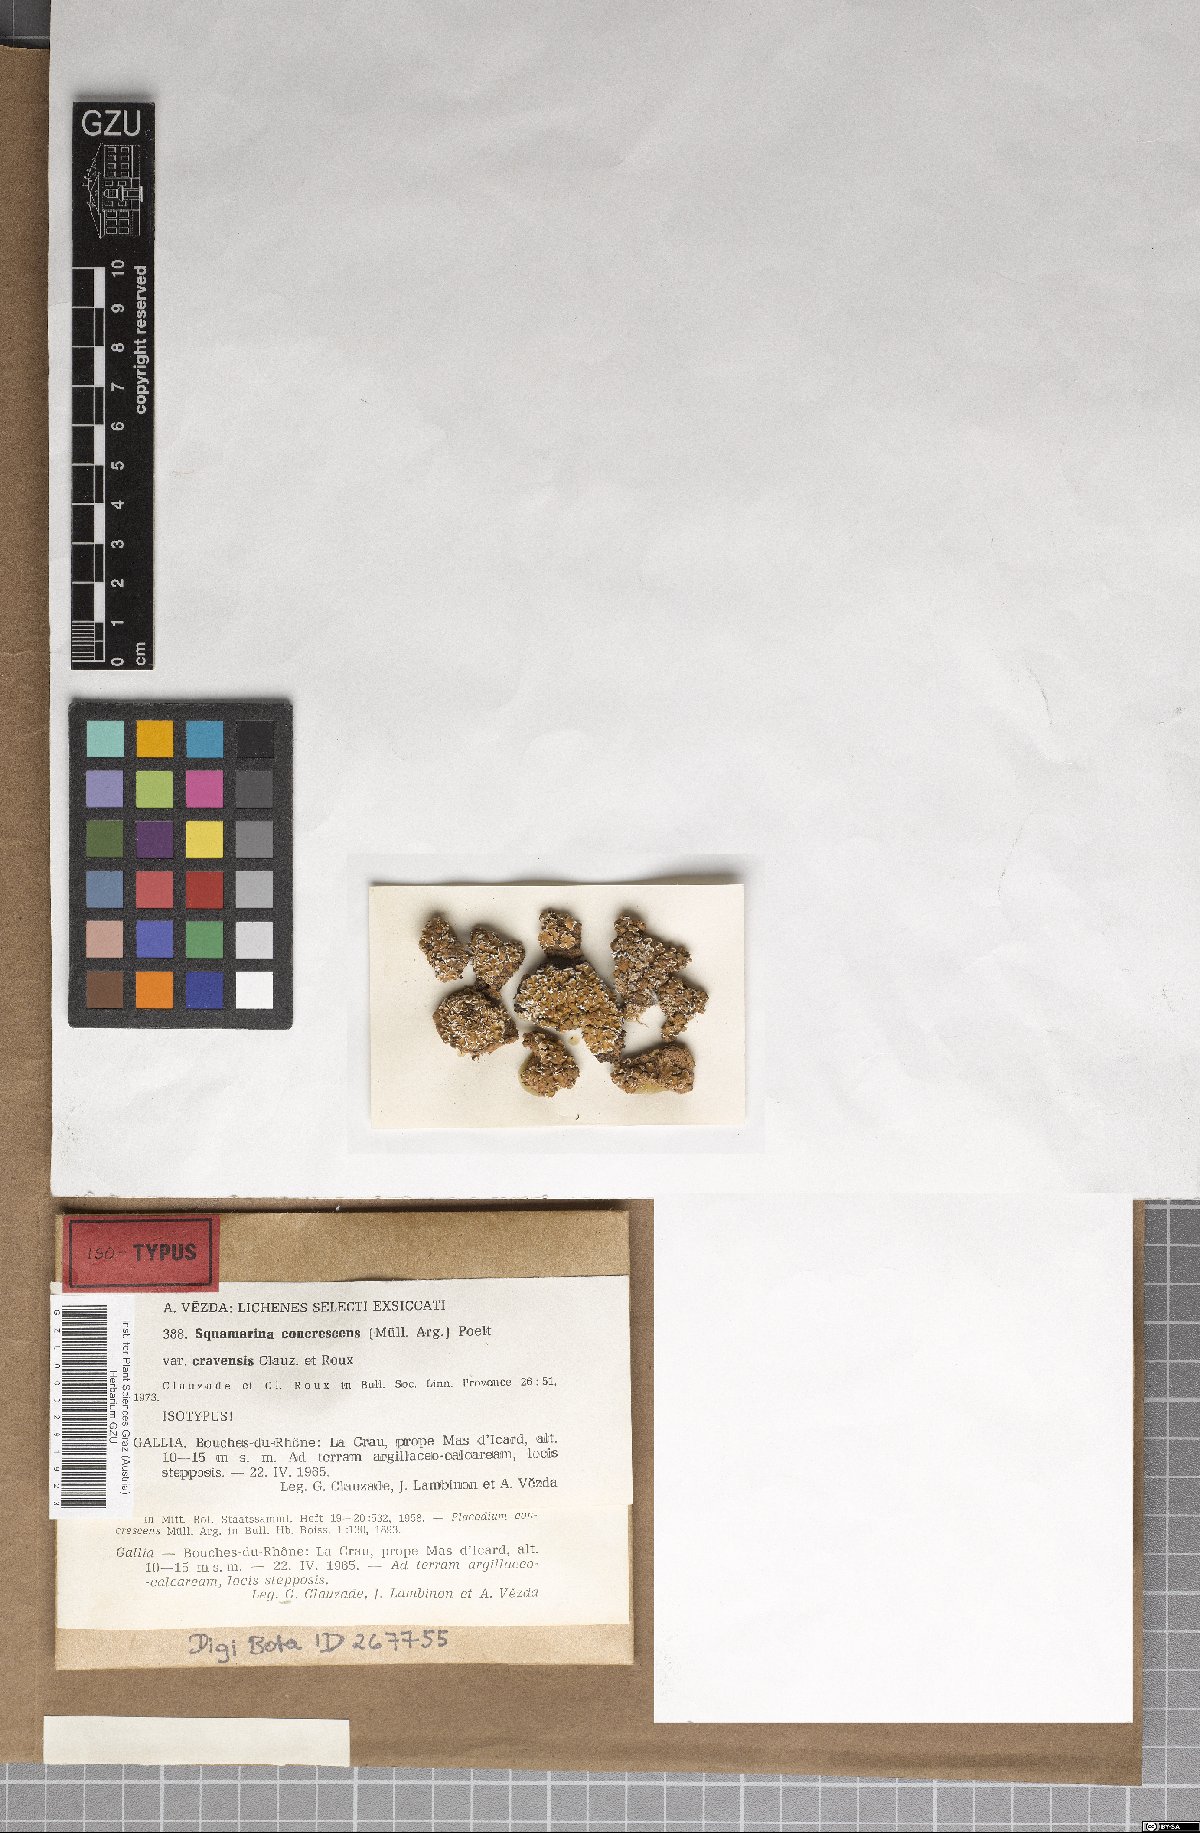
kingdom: Fungi
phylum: Ascomycota
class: Lecanoromycetes
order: Lecanorales
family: Stereocaulaceae
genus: Squamarina
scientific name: Squamarina concrescens
